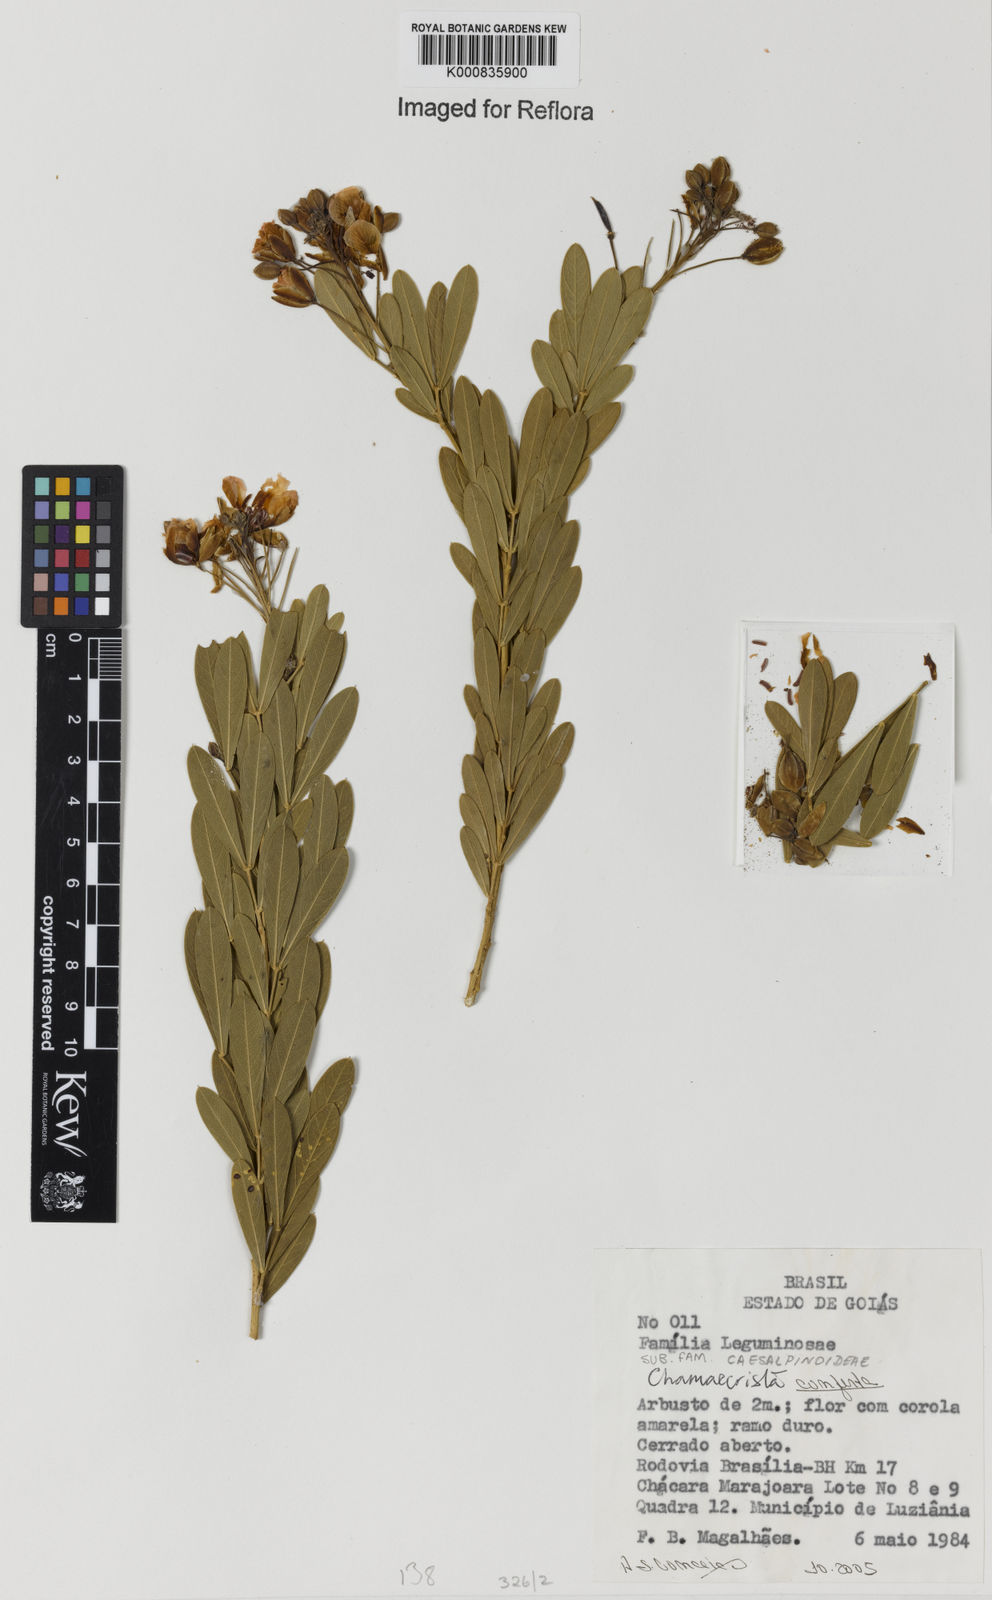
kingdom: Plantae
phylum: Tracheophyta
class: Magnoliopsida
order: Fabales
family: Fabaceae
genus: Chamaecrista
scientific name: Chamaecrista conferta
